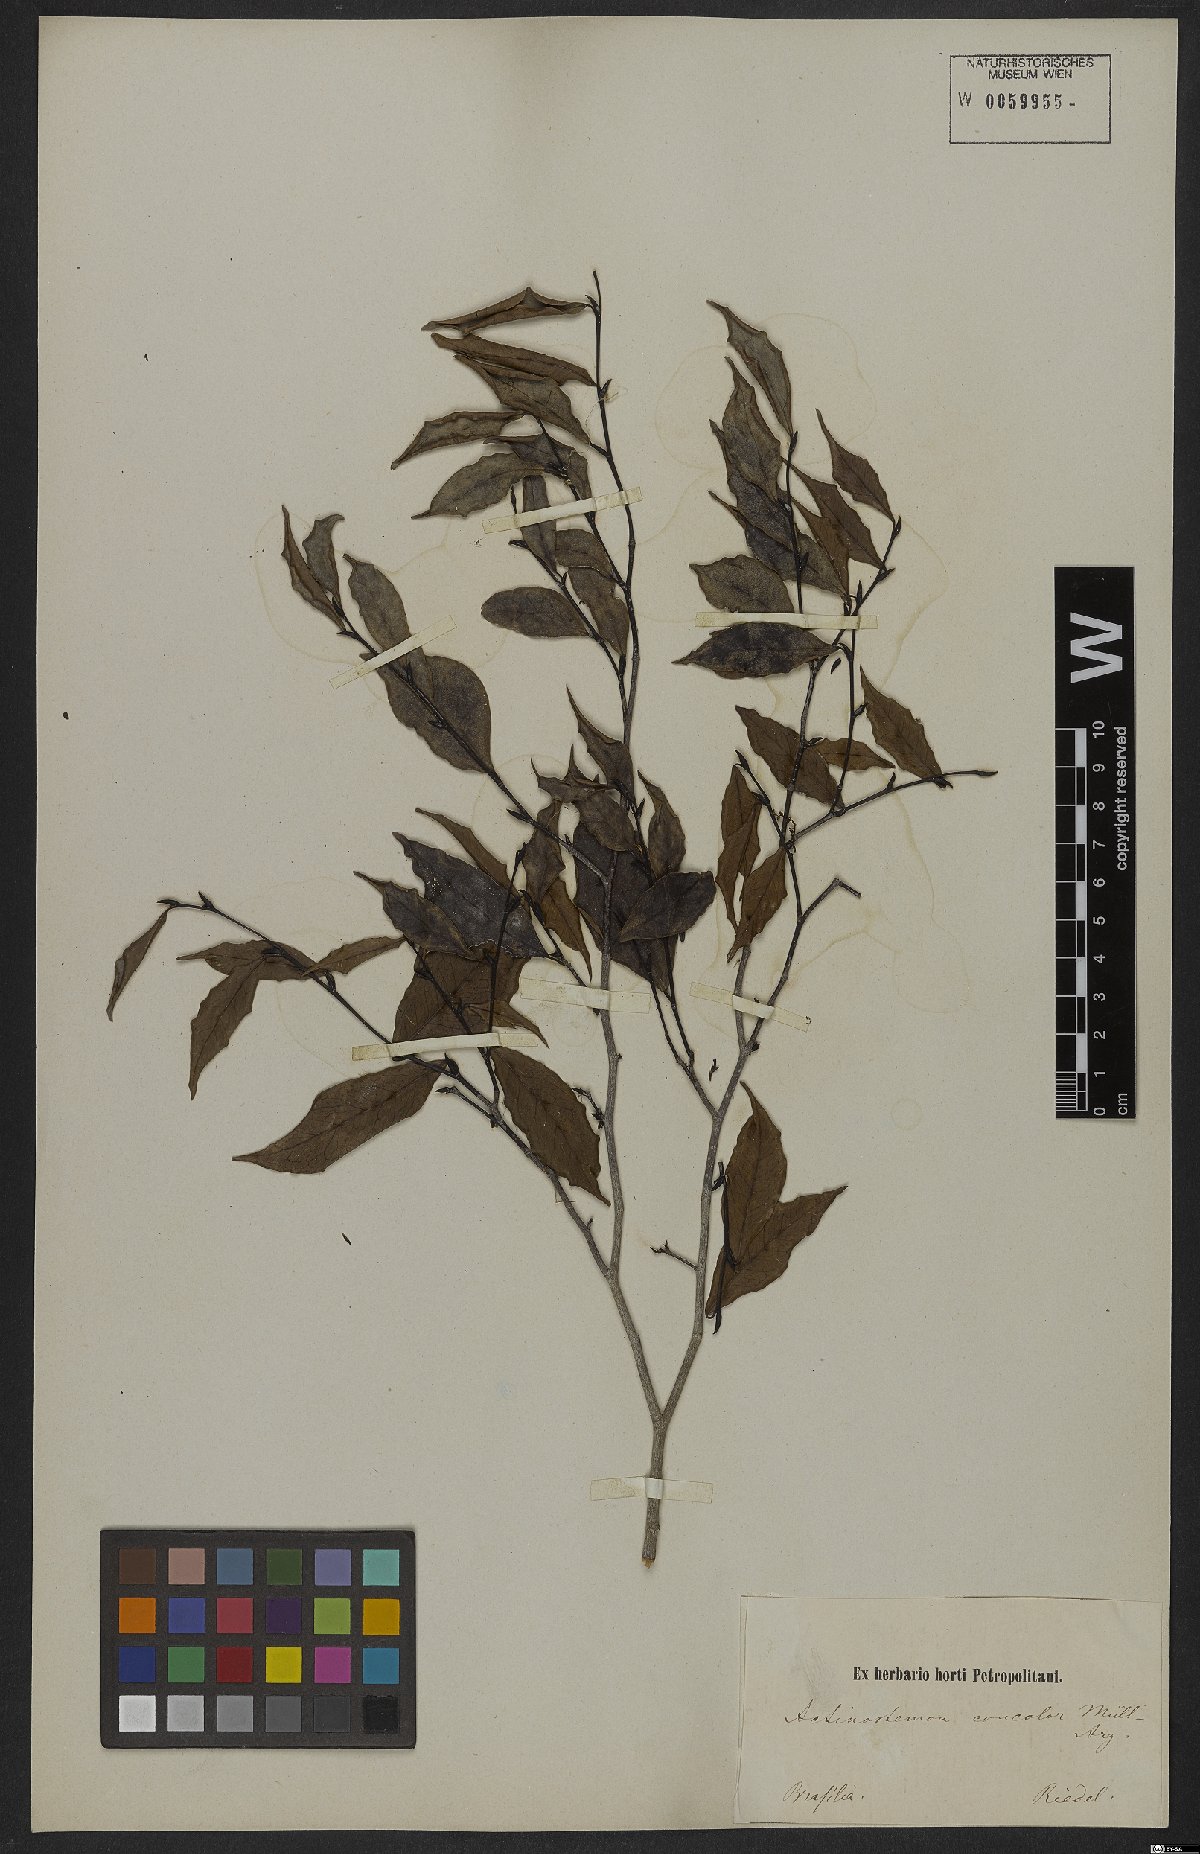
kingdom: Plantae
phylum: Tracheophyta
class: Magnoliopsida
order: Malpighiales
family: Euphorbiaceae
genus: Actinostemon
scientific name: Actinostemon concolor
